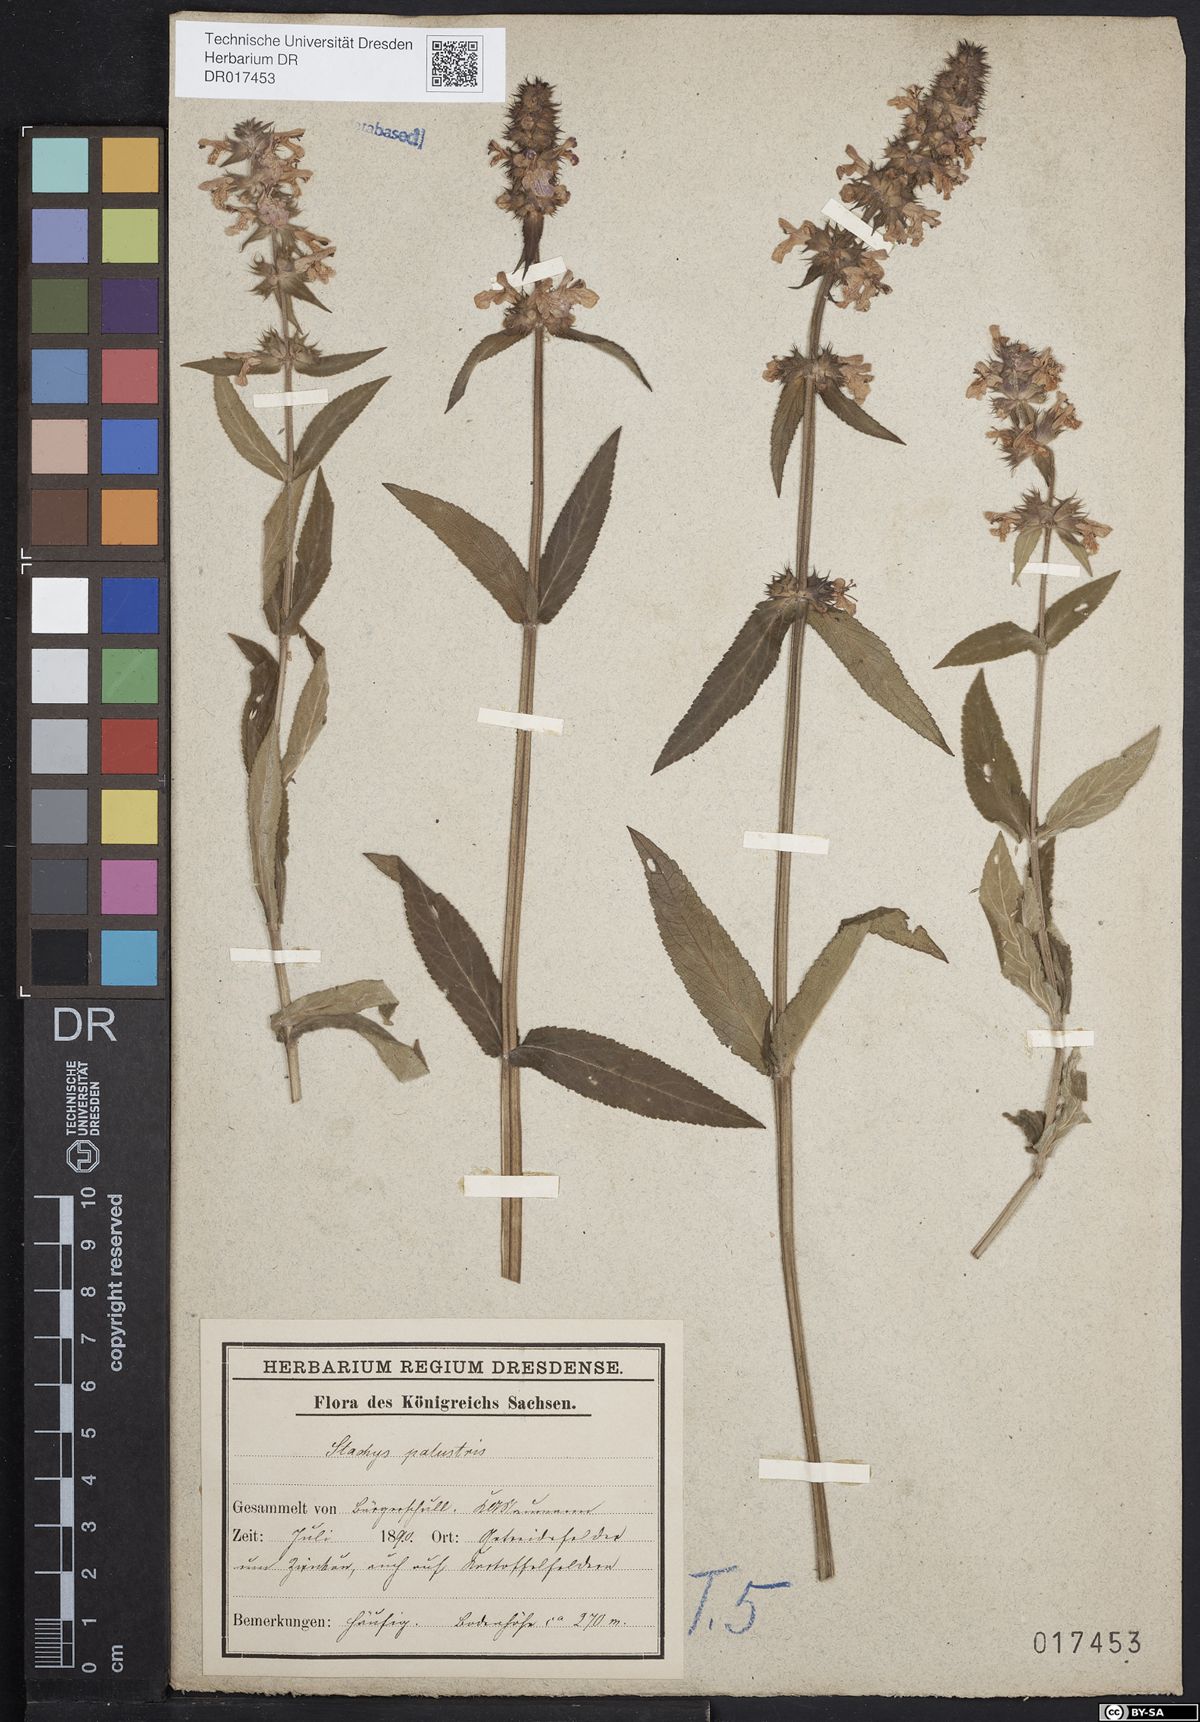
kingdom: Plantae
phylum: Tracheophyta
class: Magnoliopsida
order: Lamiales
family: Lamiaceae
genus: Stachys
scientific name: Stachys palustris
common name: Marsh woundwort
